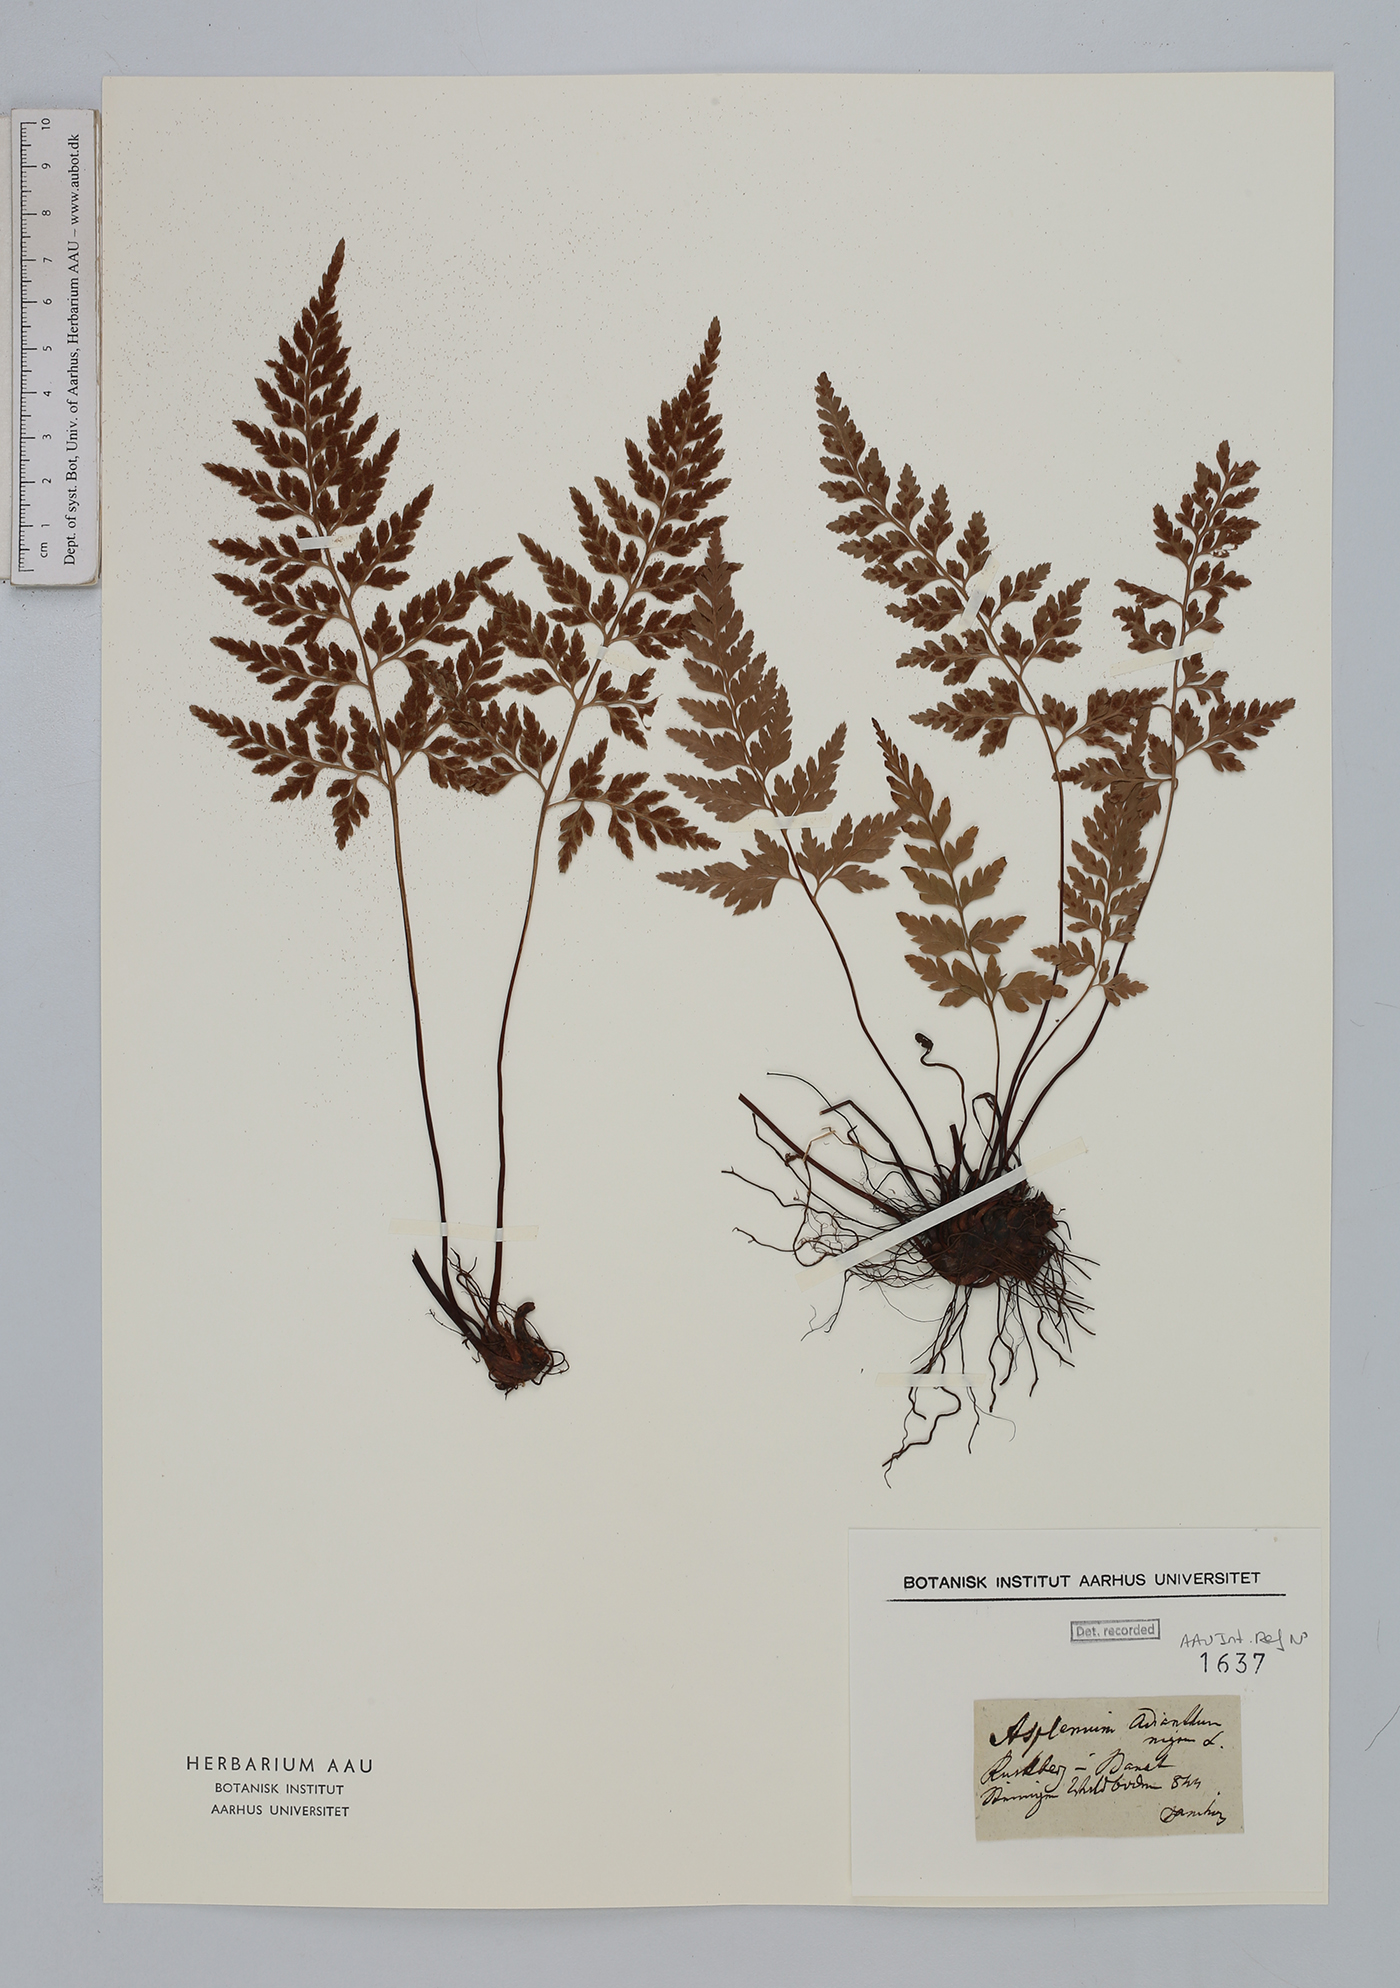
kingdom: Plantae
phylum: Tracheophyta
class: Polypodiopsida
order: Polypodiales
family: Aspleniaceae
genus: Asplenium
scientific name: Asplenium adiantum-nigrum
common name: Black spleenwort
